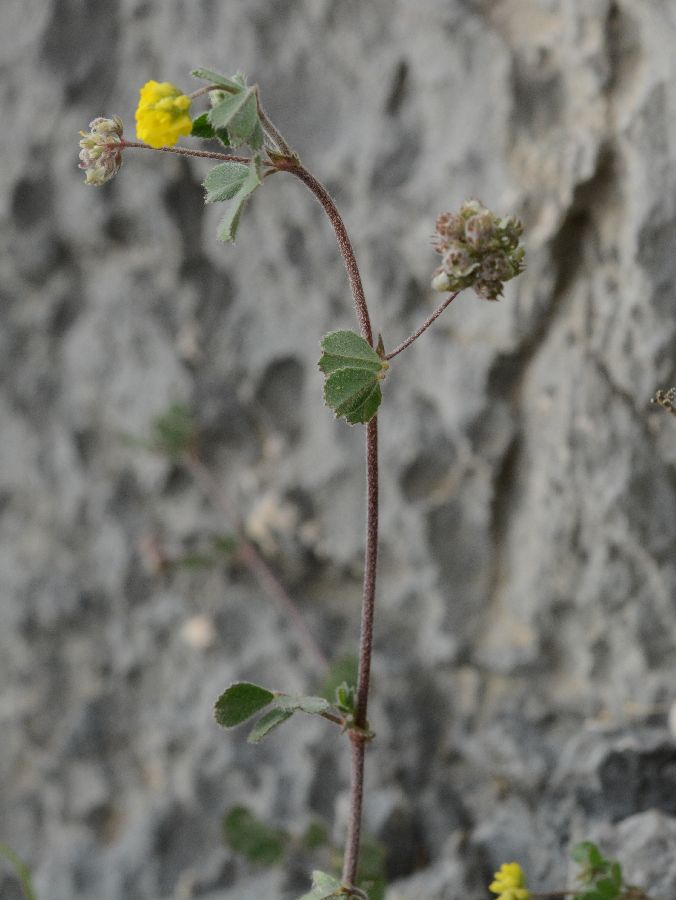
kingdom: Plantae
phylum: Tracheophyta
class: Magnoliopsida
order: Fabales
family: Fabaceae
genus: Medicago
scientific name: Medicago coronata
